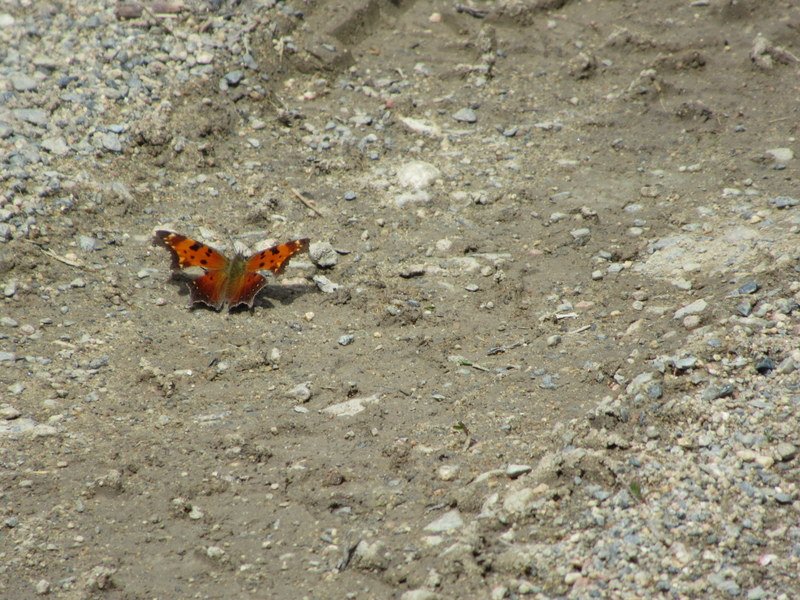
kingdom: Animalia
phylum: Arthropoda
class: Insecta
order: Lepidoptera
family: Nymphalidae
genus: Polygonia
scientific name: Polygonia progne
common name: Gray Comma
